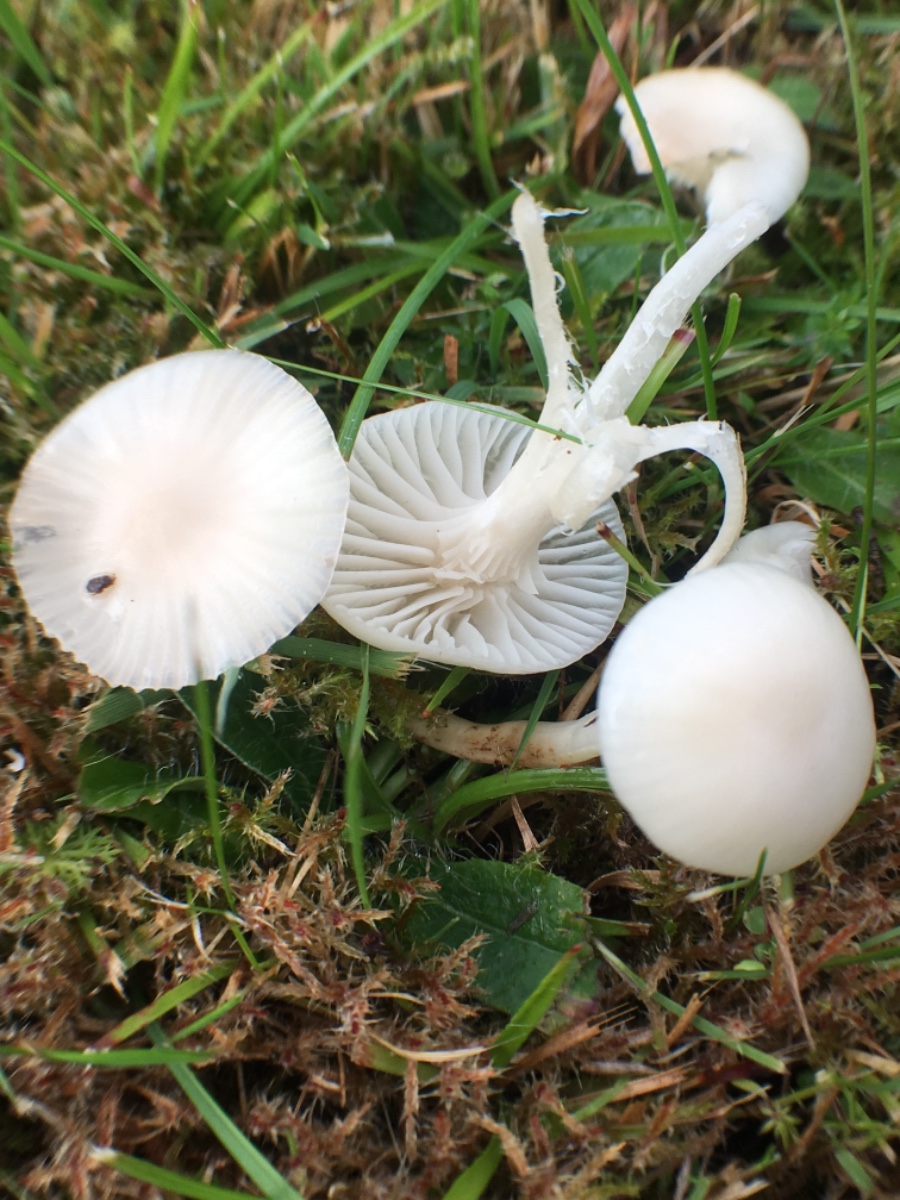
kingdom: Fungi
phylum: Basidiomycota
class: Agaricomycetes
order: Agaricales
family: Hygrophoraceae
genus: Cuphophyllus
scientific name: Cuphophyllus virgineus
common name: snehvid vokshat
